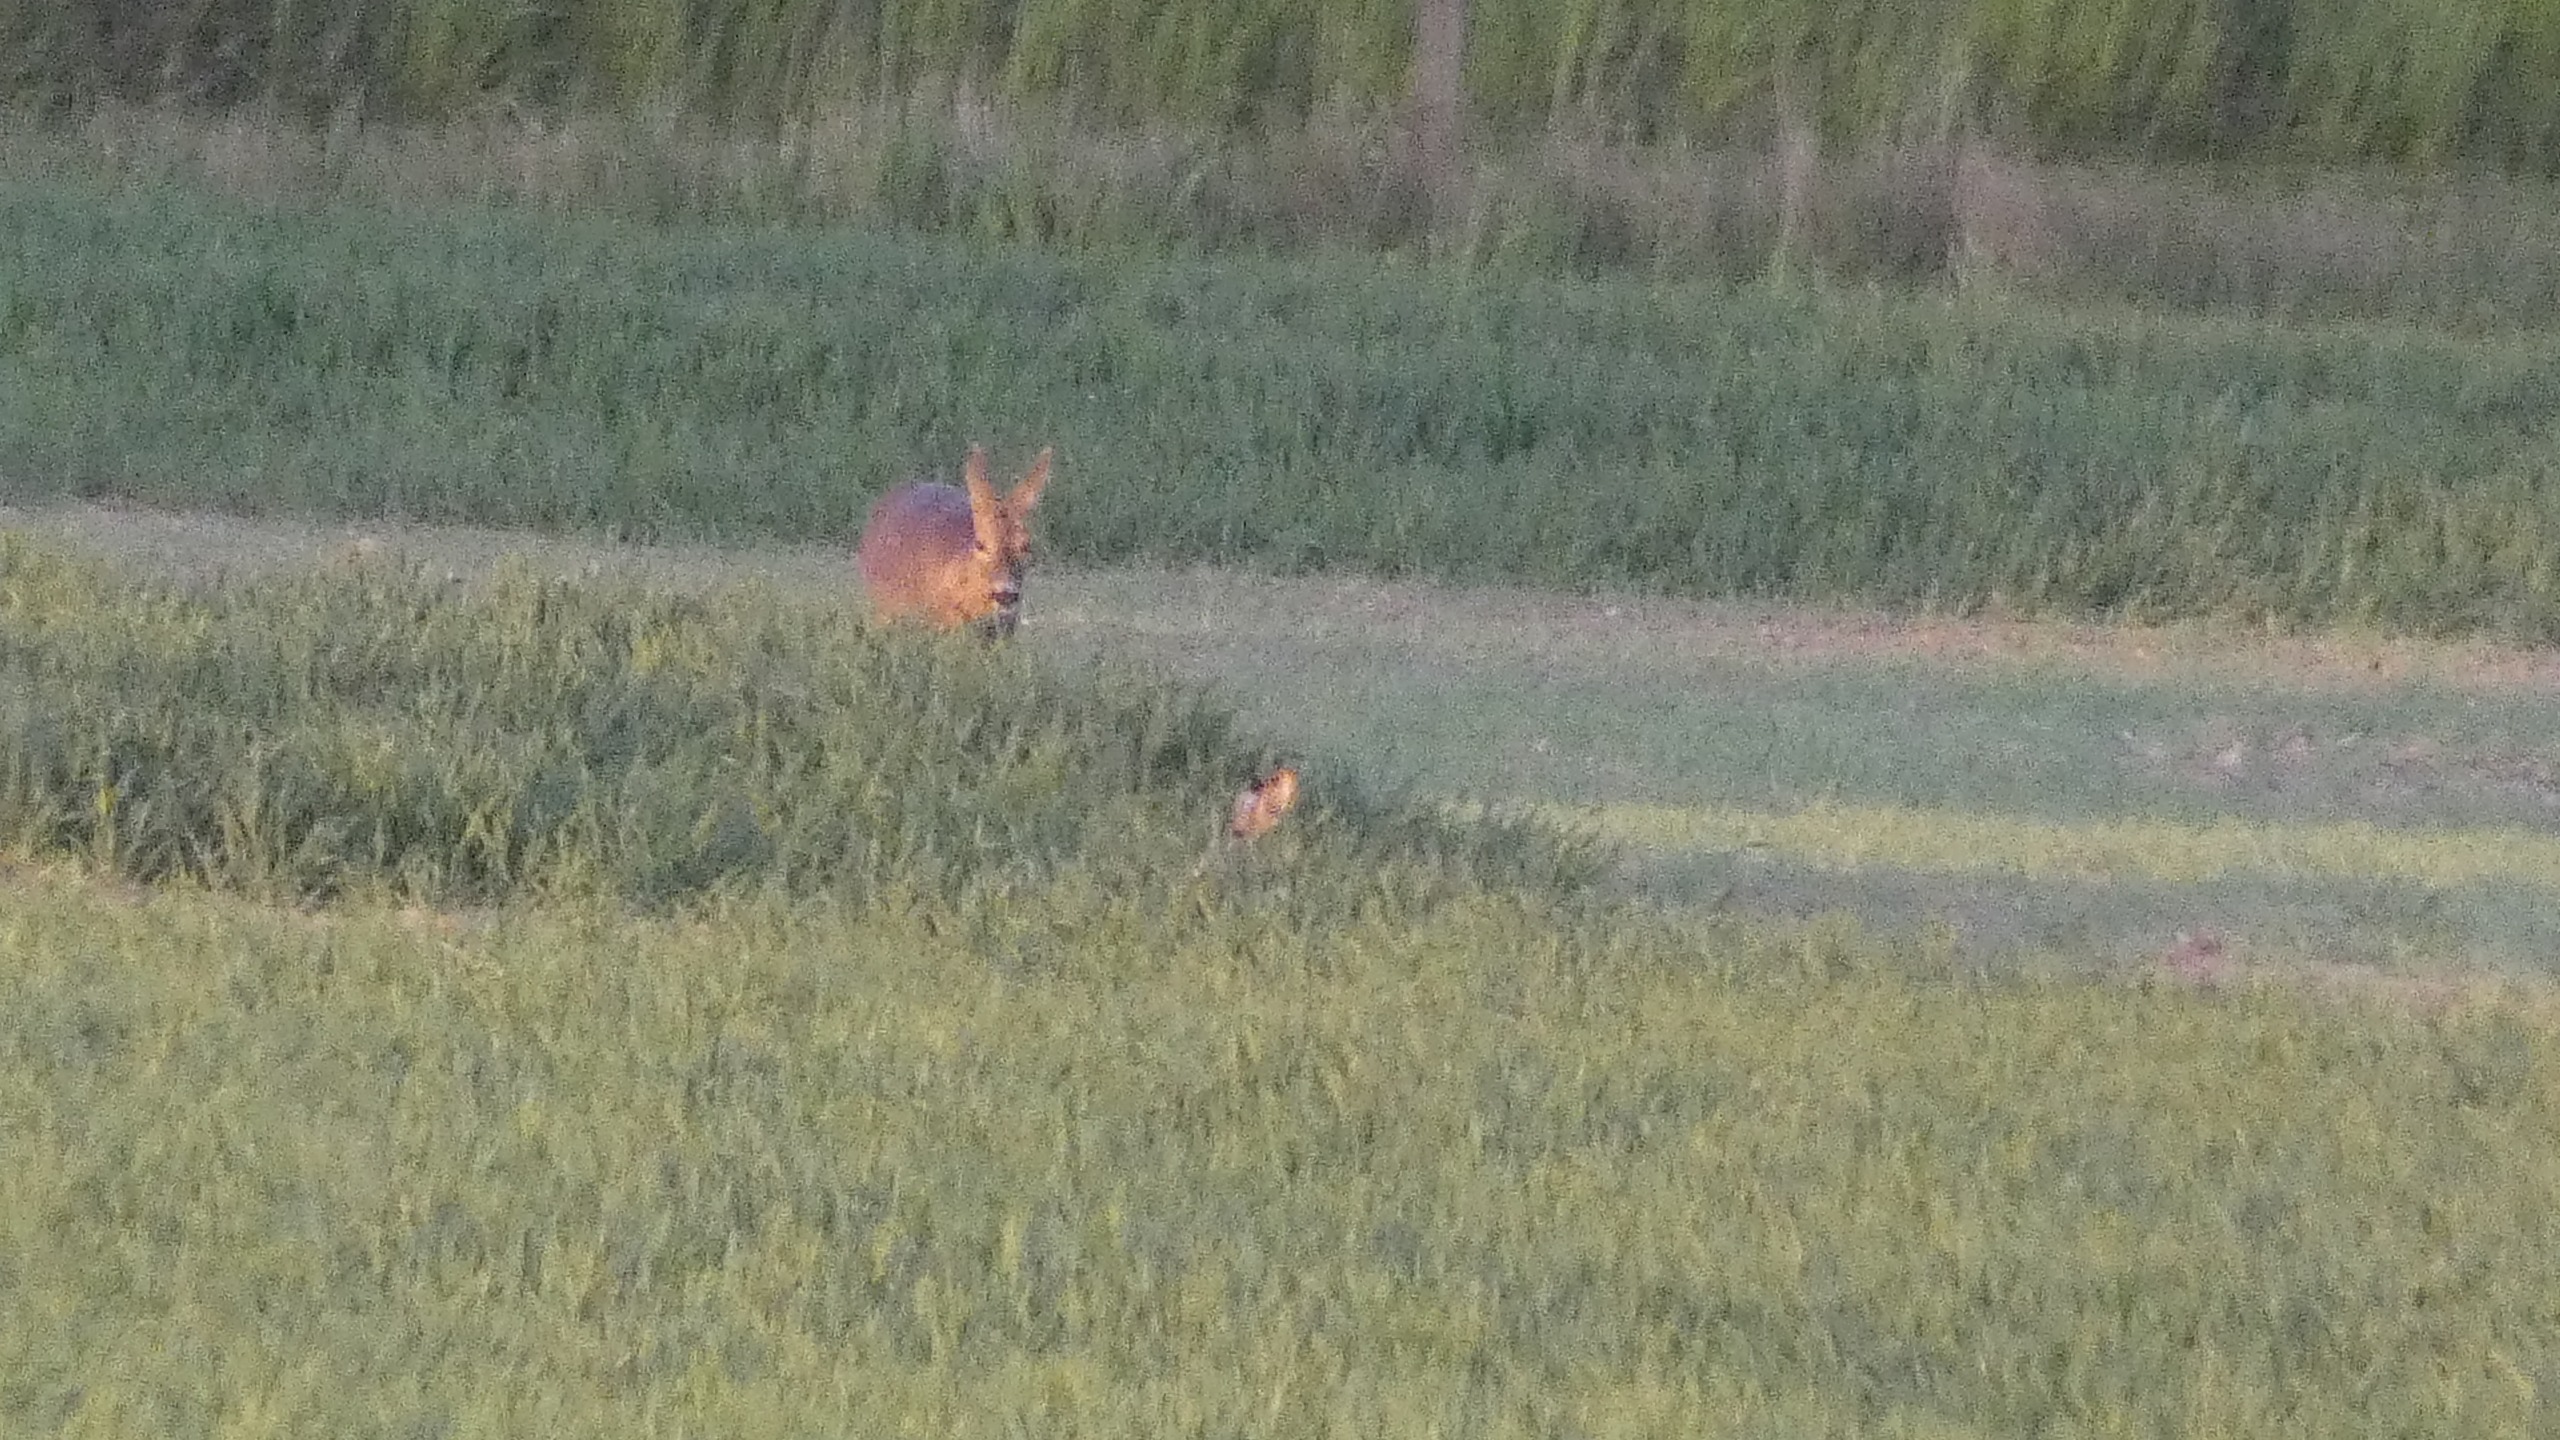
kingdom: Animalia
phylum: Chordata
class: Mammalia
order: Artiodactyla
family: Cervidae
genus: Capreolus
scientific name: Capreolus capreolus
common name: Rådyr
